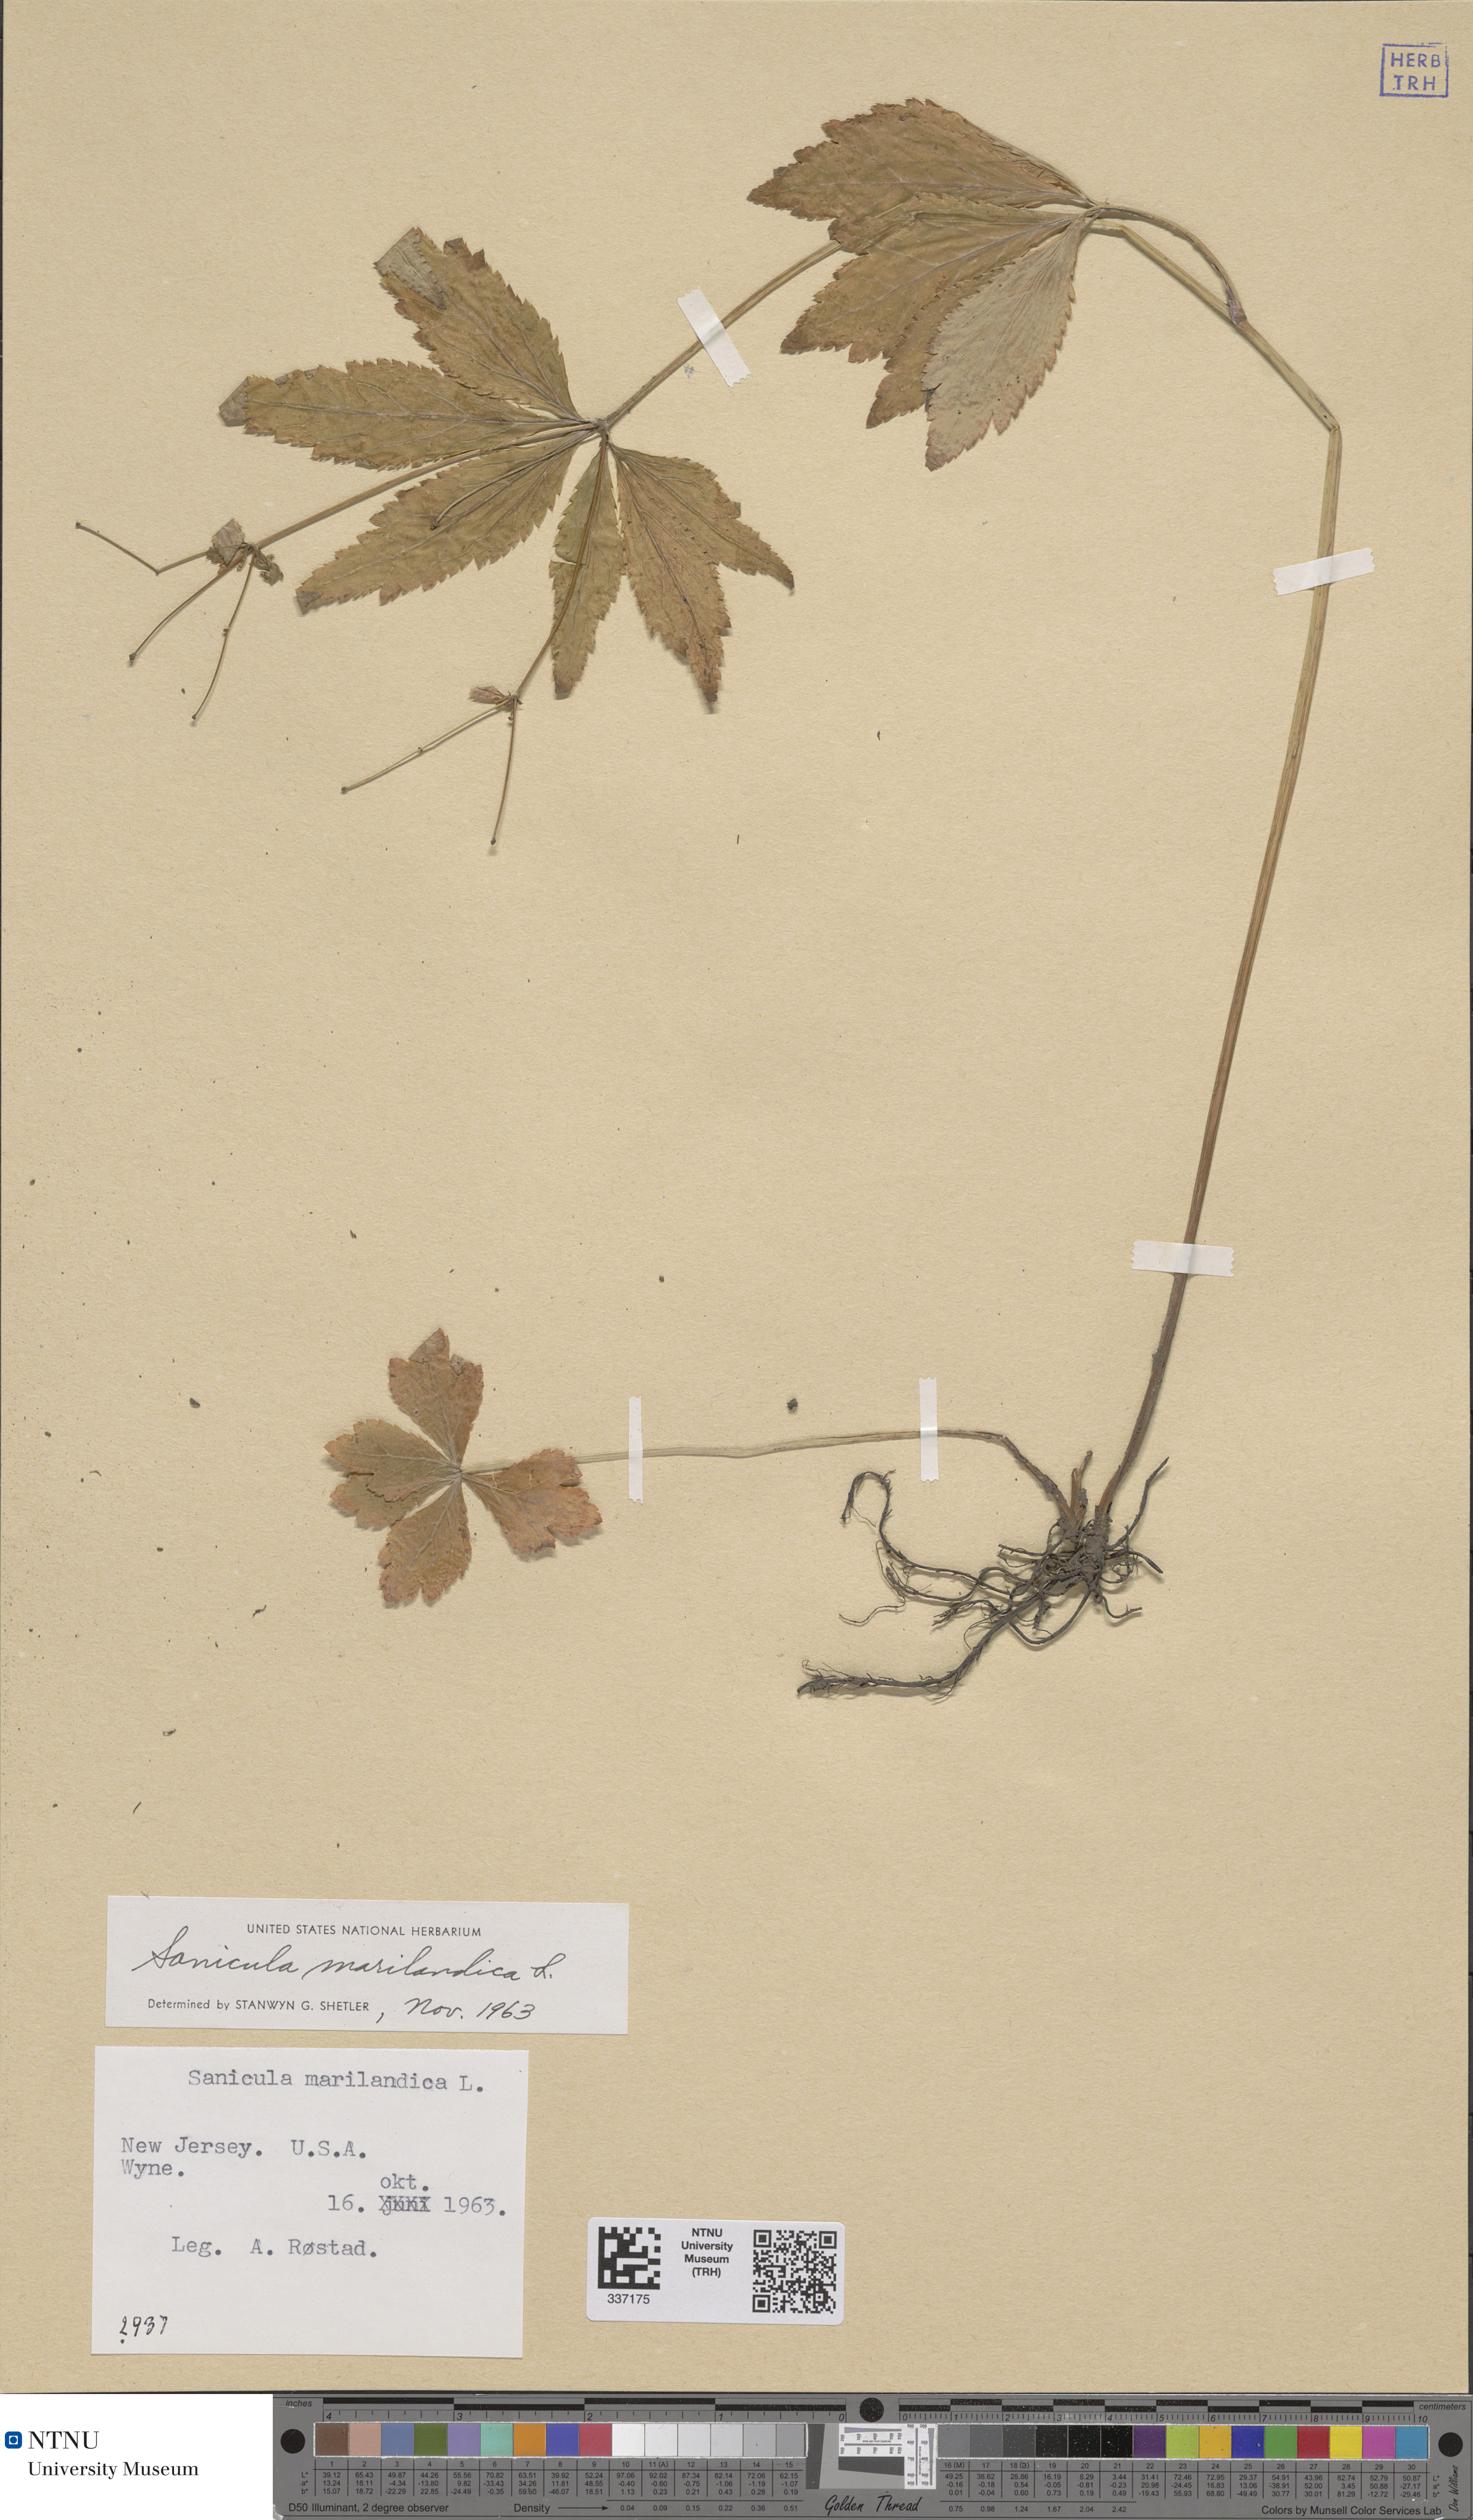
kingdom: Plantae
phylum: Tracheophyta
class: Magnoliopsida
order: Apiales
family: Apiaceae
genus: Sanicula
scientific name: Sanicula marilandica
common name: Black snakeroot
